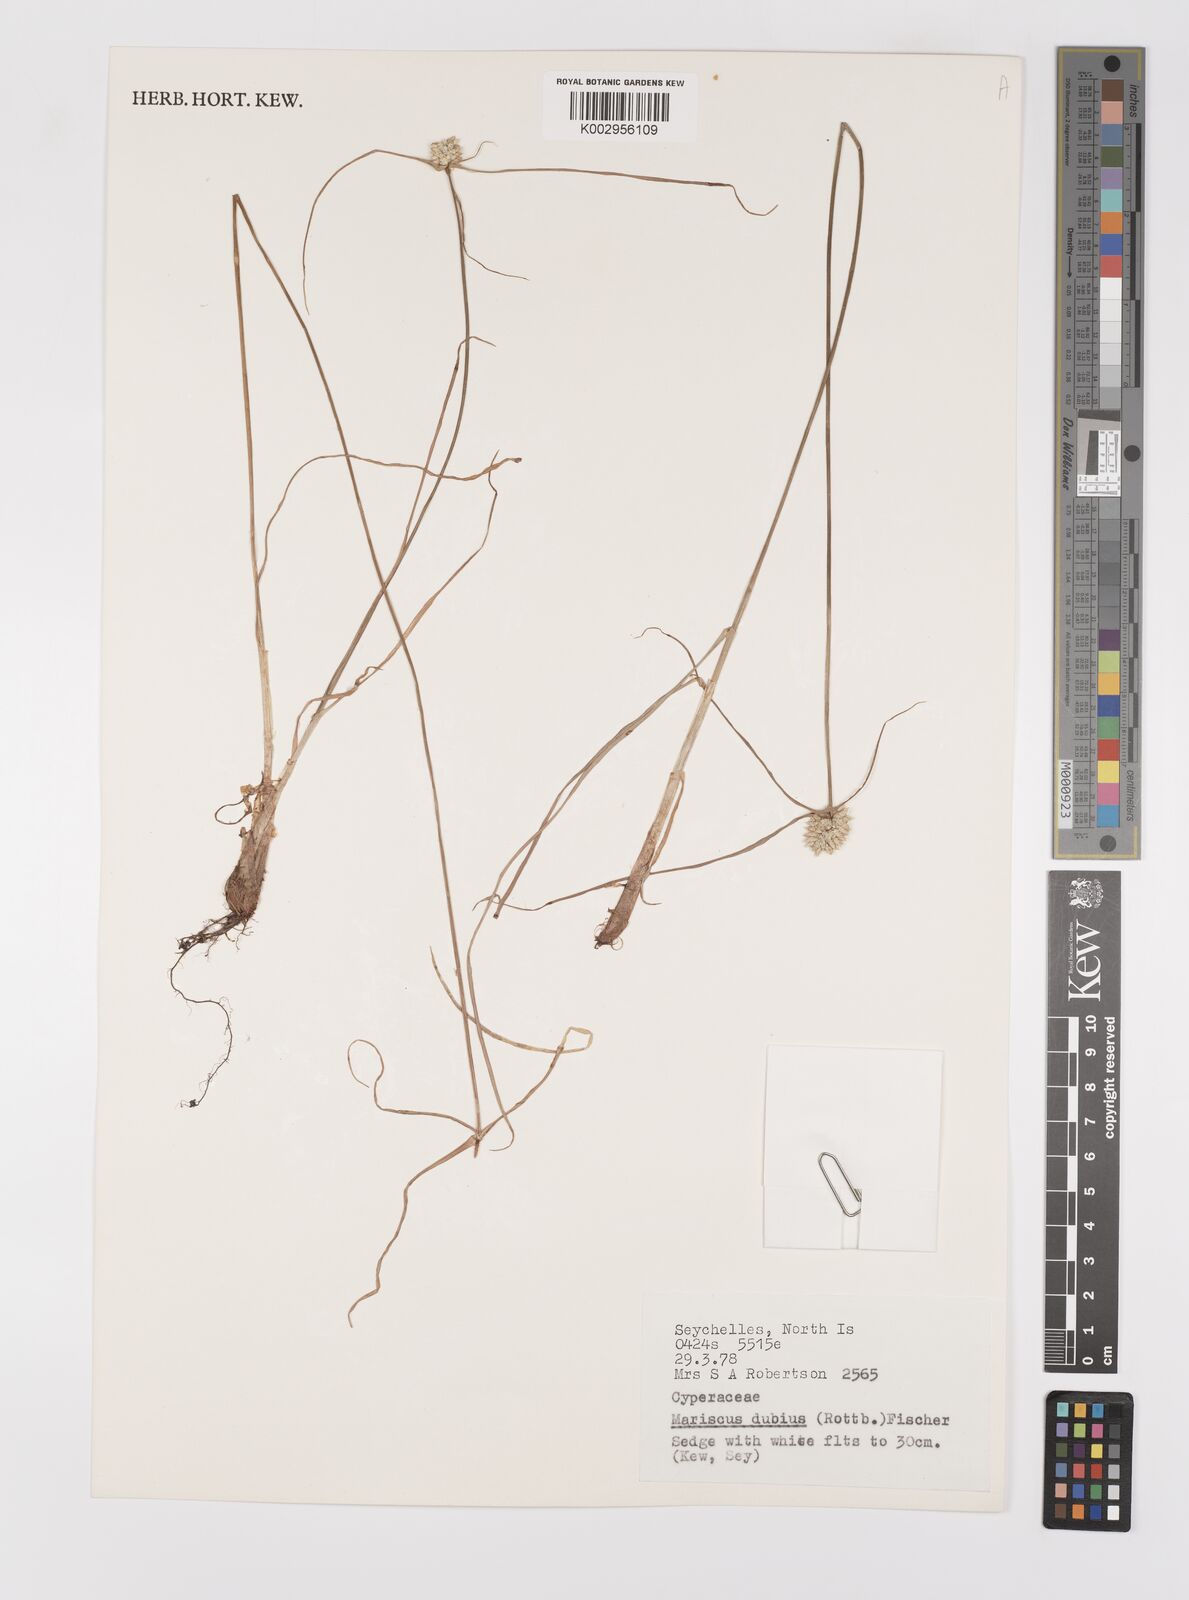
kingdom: Plantae
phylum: Tracheophyta
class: Liliopsida
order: Poales
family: Cyperaceae
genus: Cyperus
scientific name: Cyperus dubius
